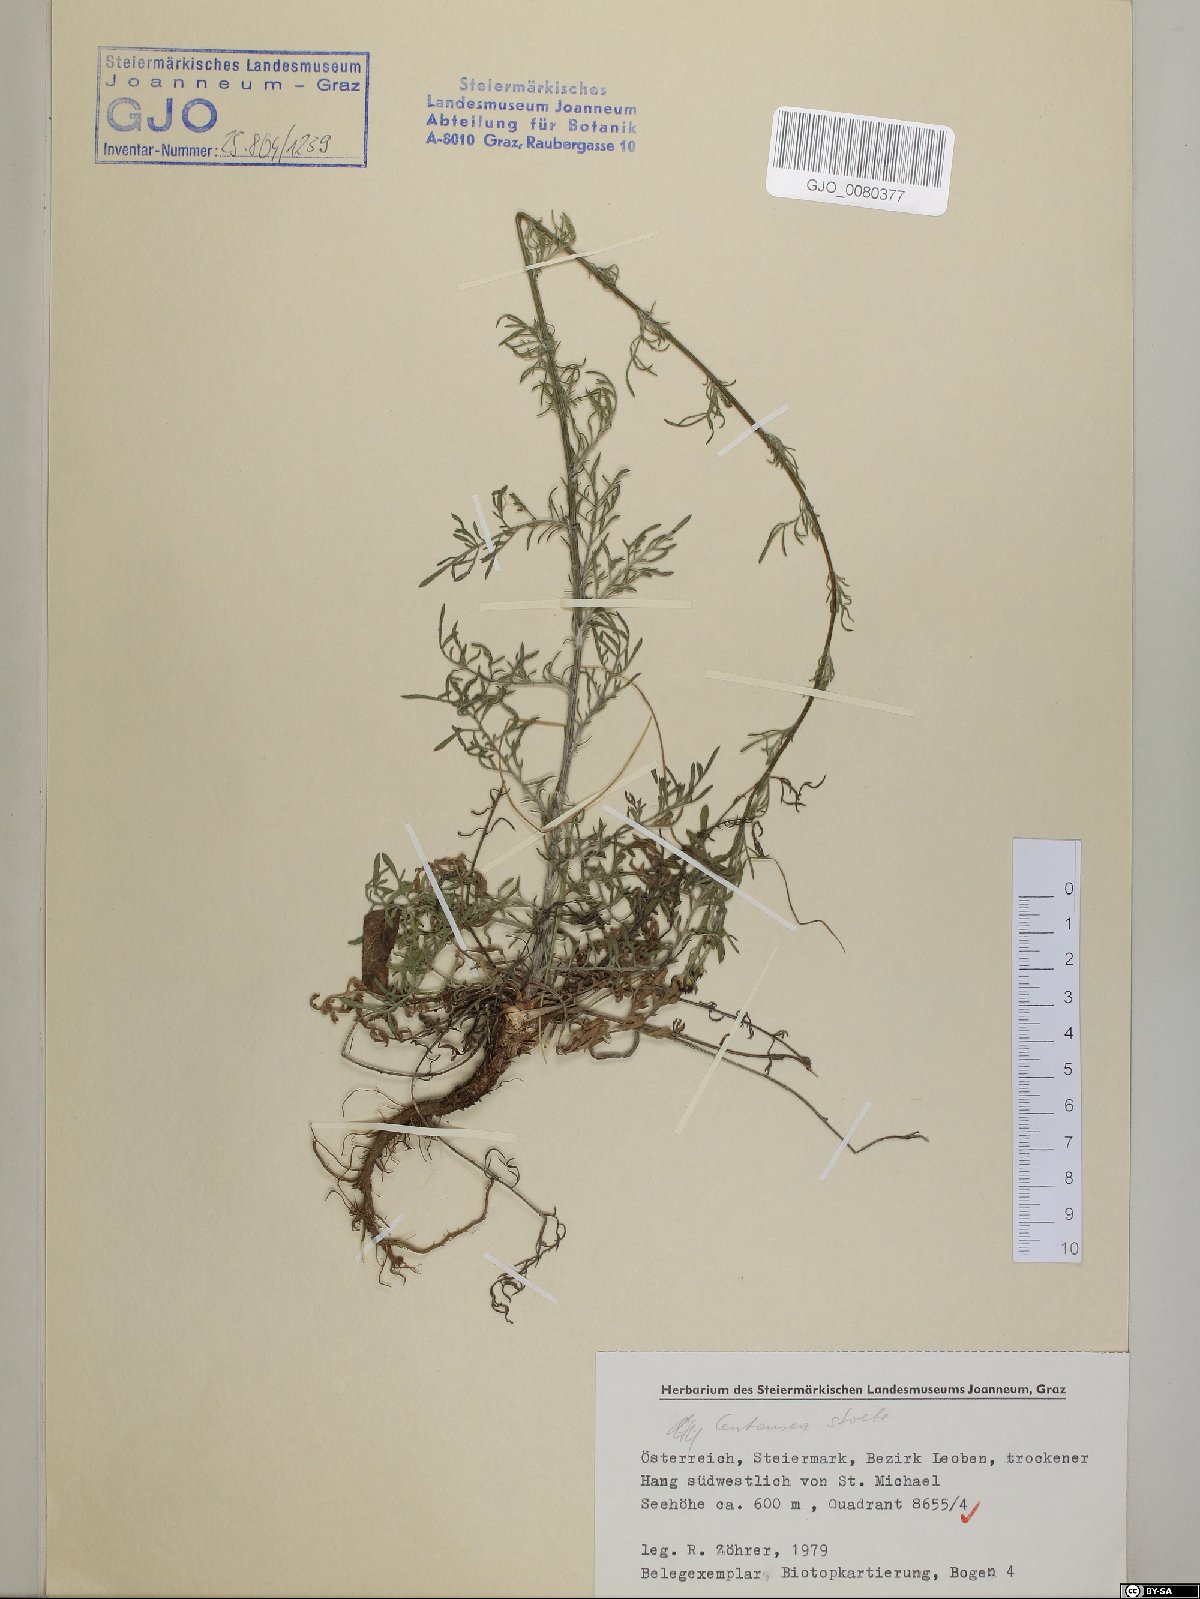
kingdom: Plantae
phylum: Tracheophyta
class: Magnoliopsida
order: Asterales
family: Asteraceae
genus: Centaurea
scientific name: Centaurea stoebe
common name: Spotted knapweed
